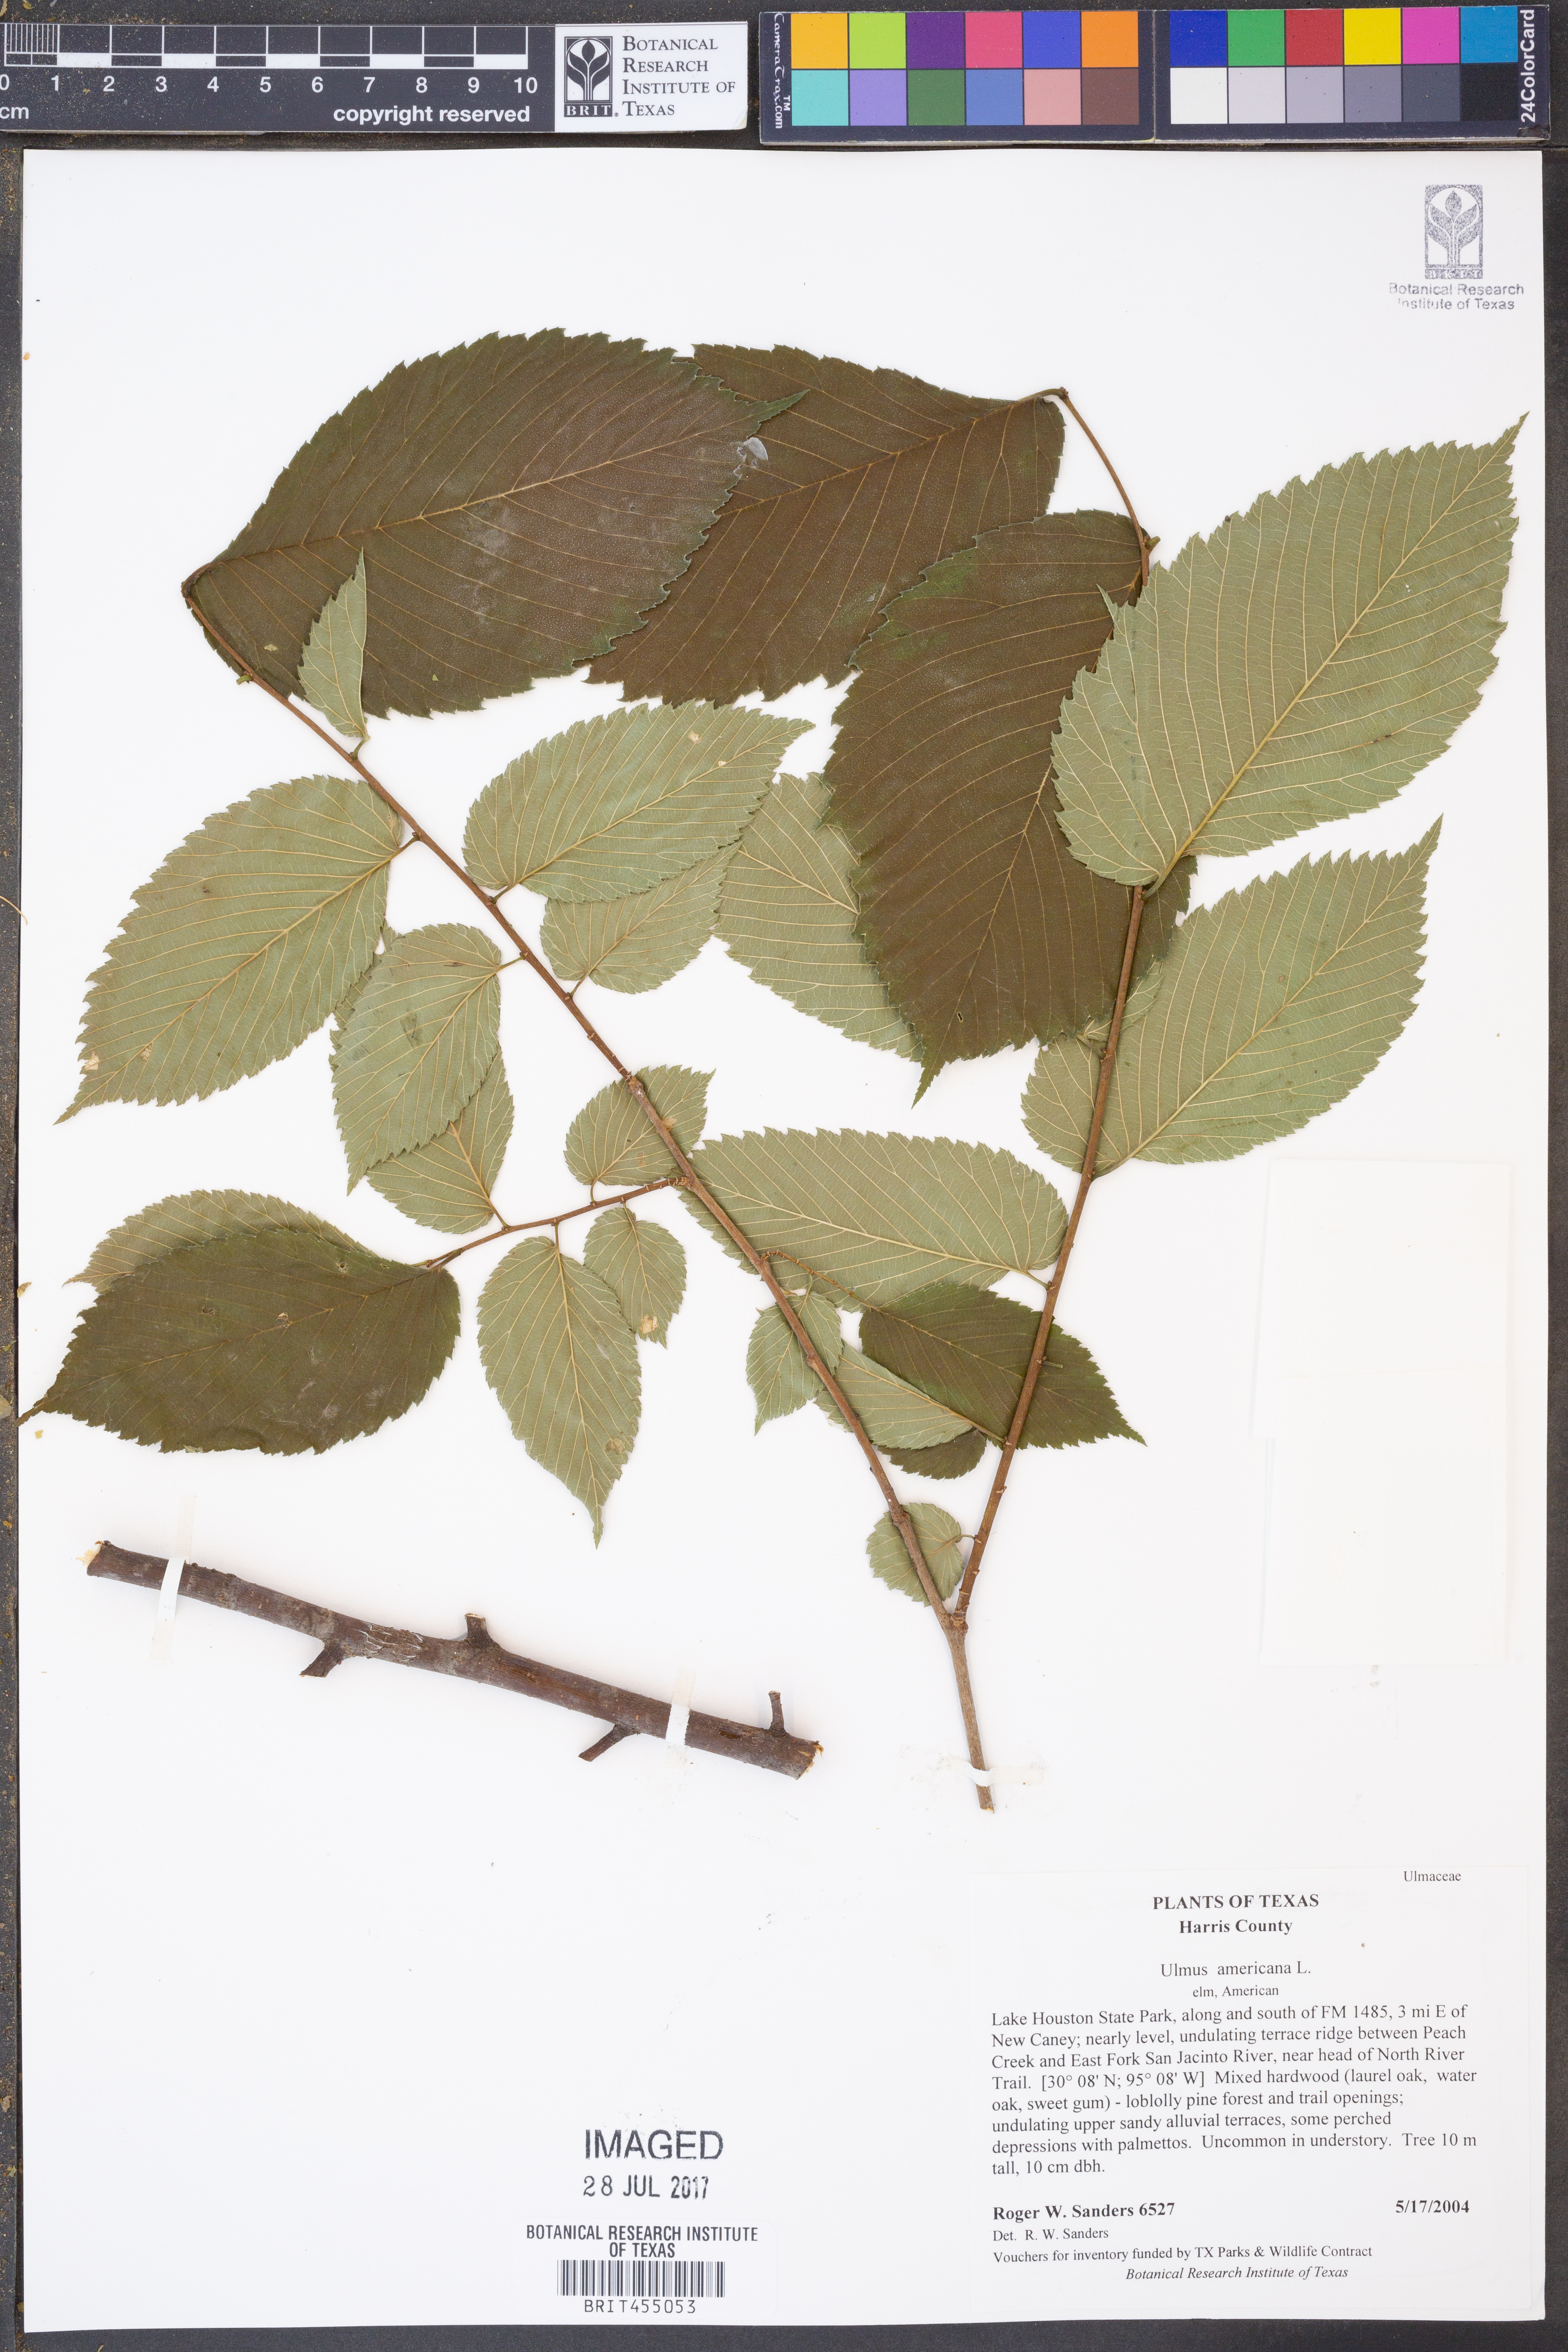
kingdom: Plantae
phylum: Tracheophyta
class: Magnoliopsida
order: Rosales
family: Ulmaceae
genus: Ulmus
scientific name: Ulmus americana
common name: American elm
